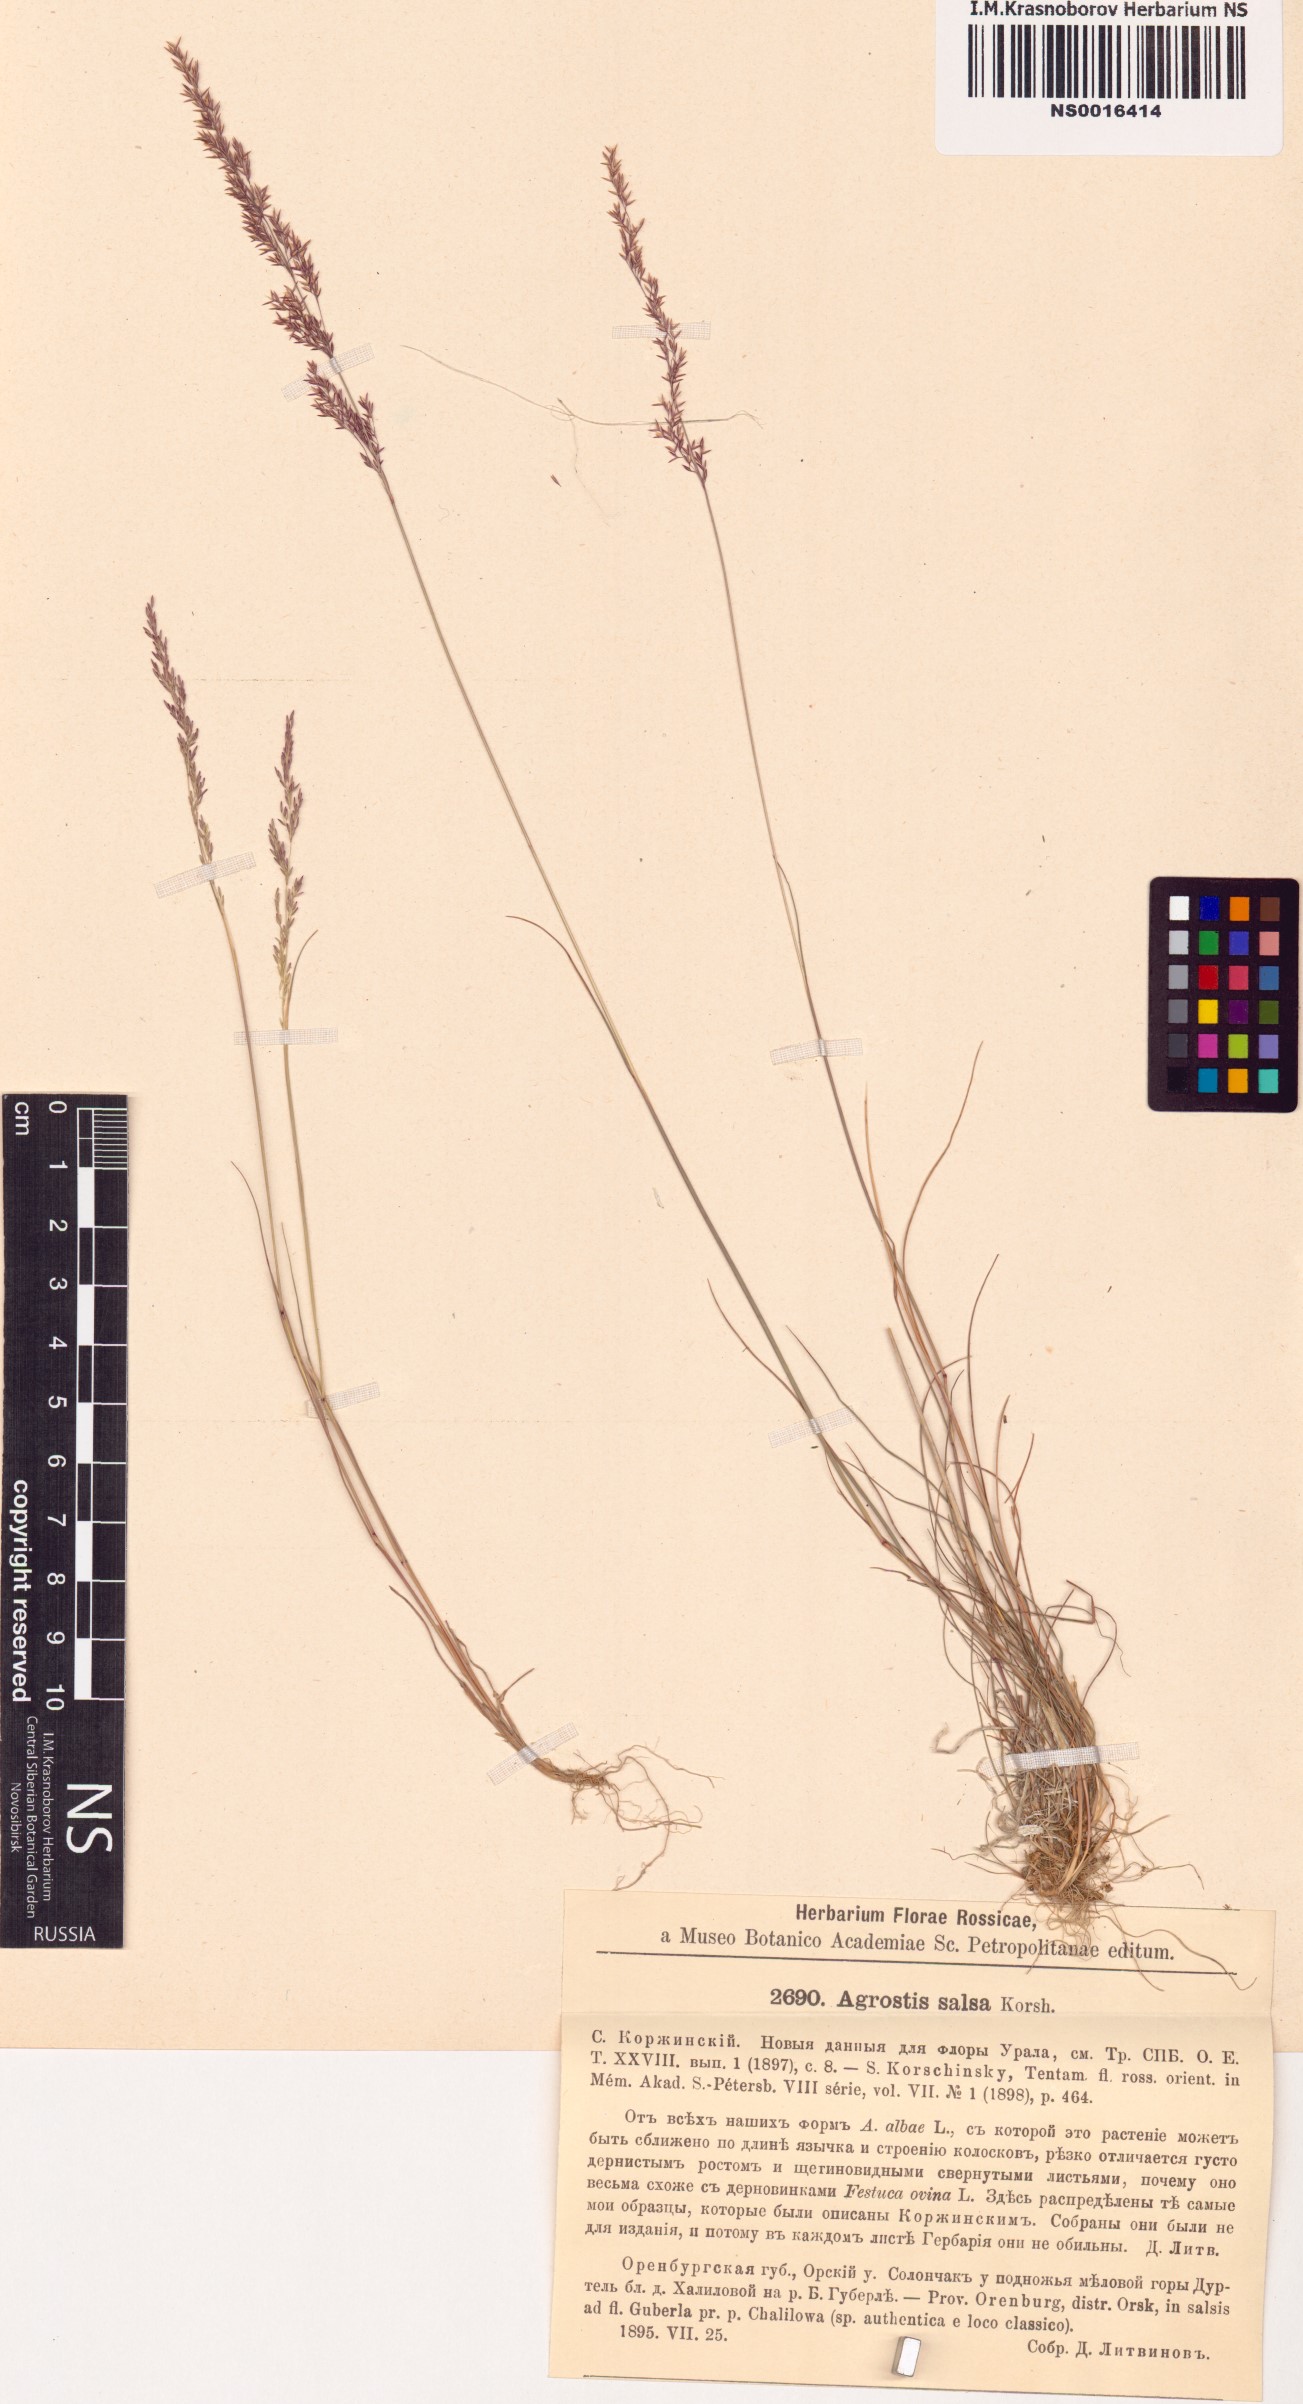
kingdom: Plantae
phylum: Tracheophyta
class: Liliopsida
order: Poales
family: Poaceae
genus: Agrostis
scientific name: Agrostis salsa
